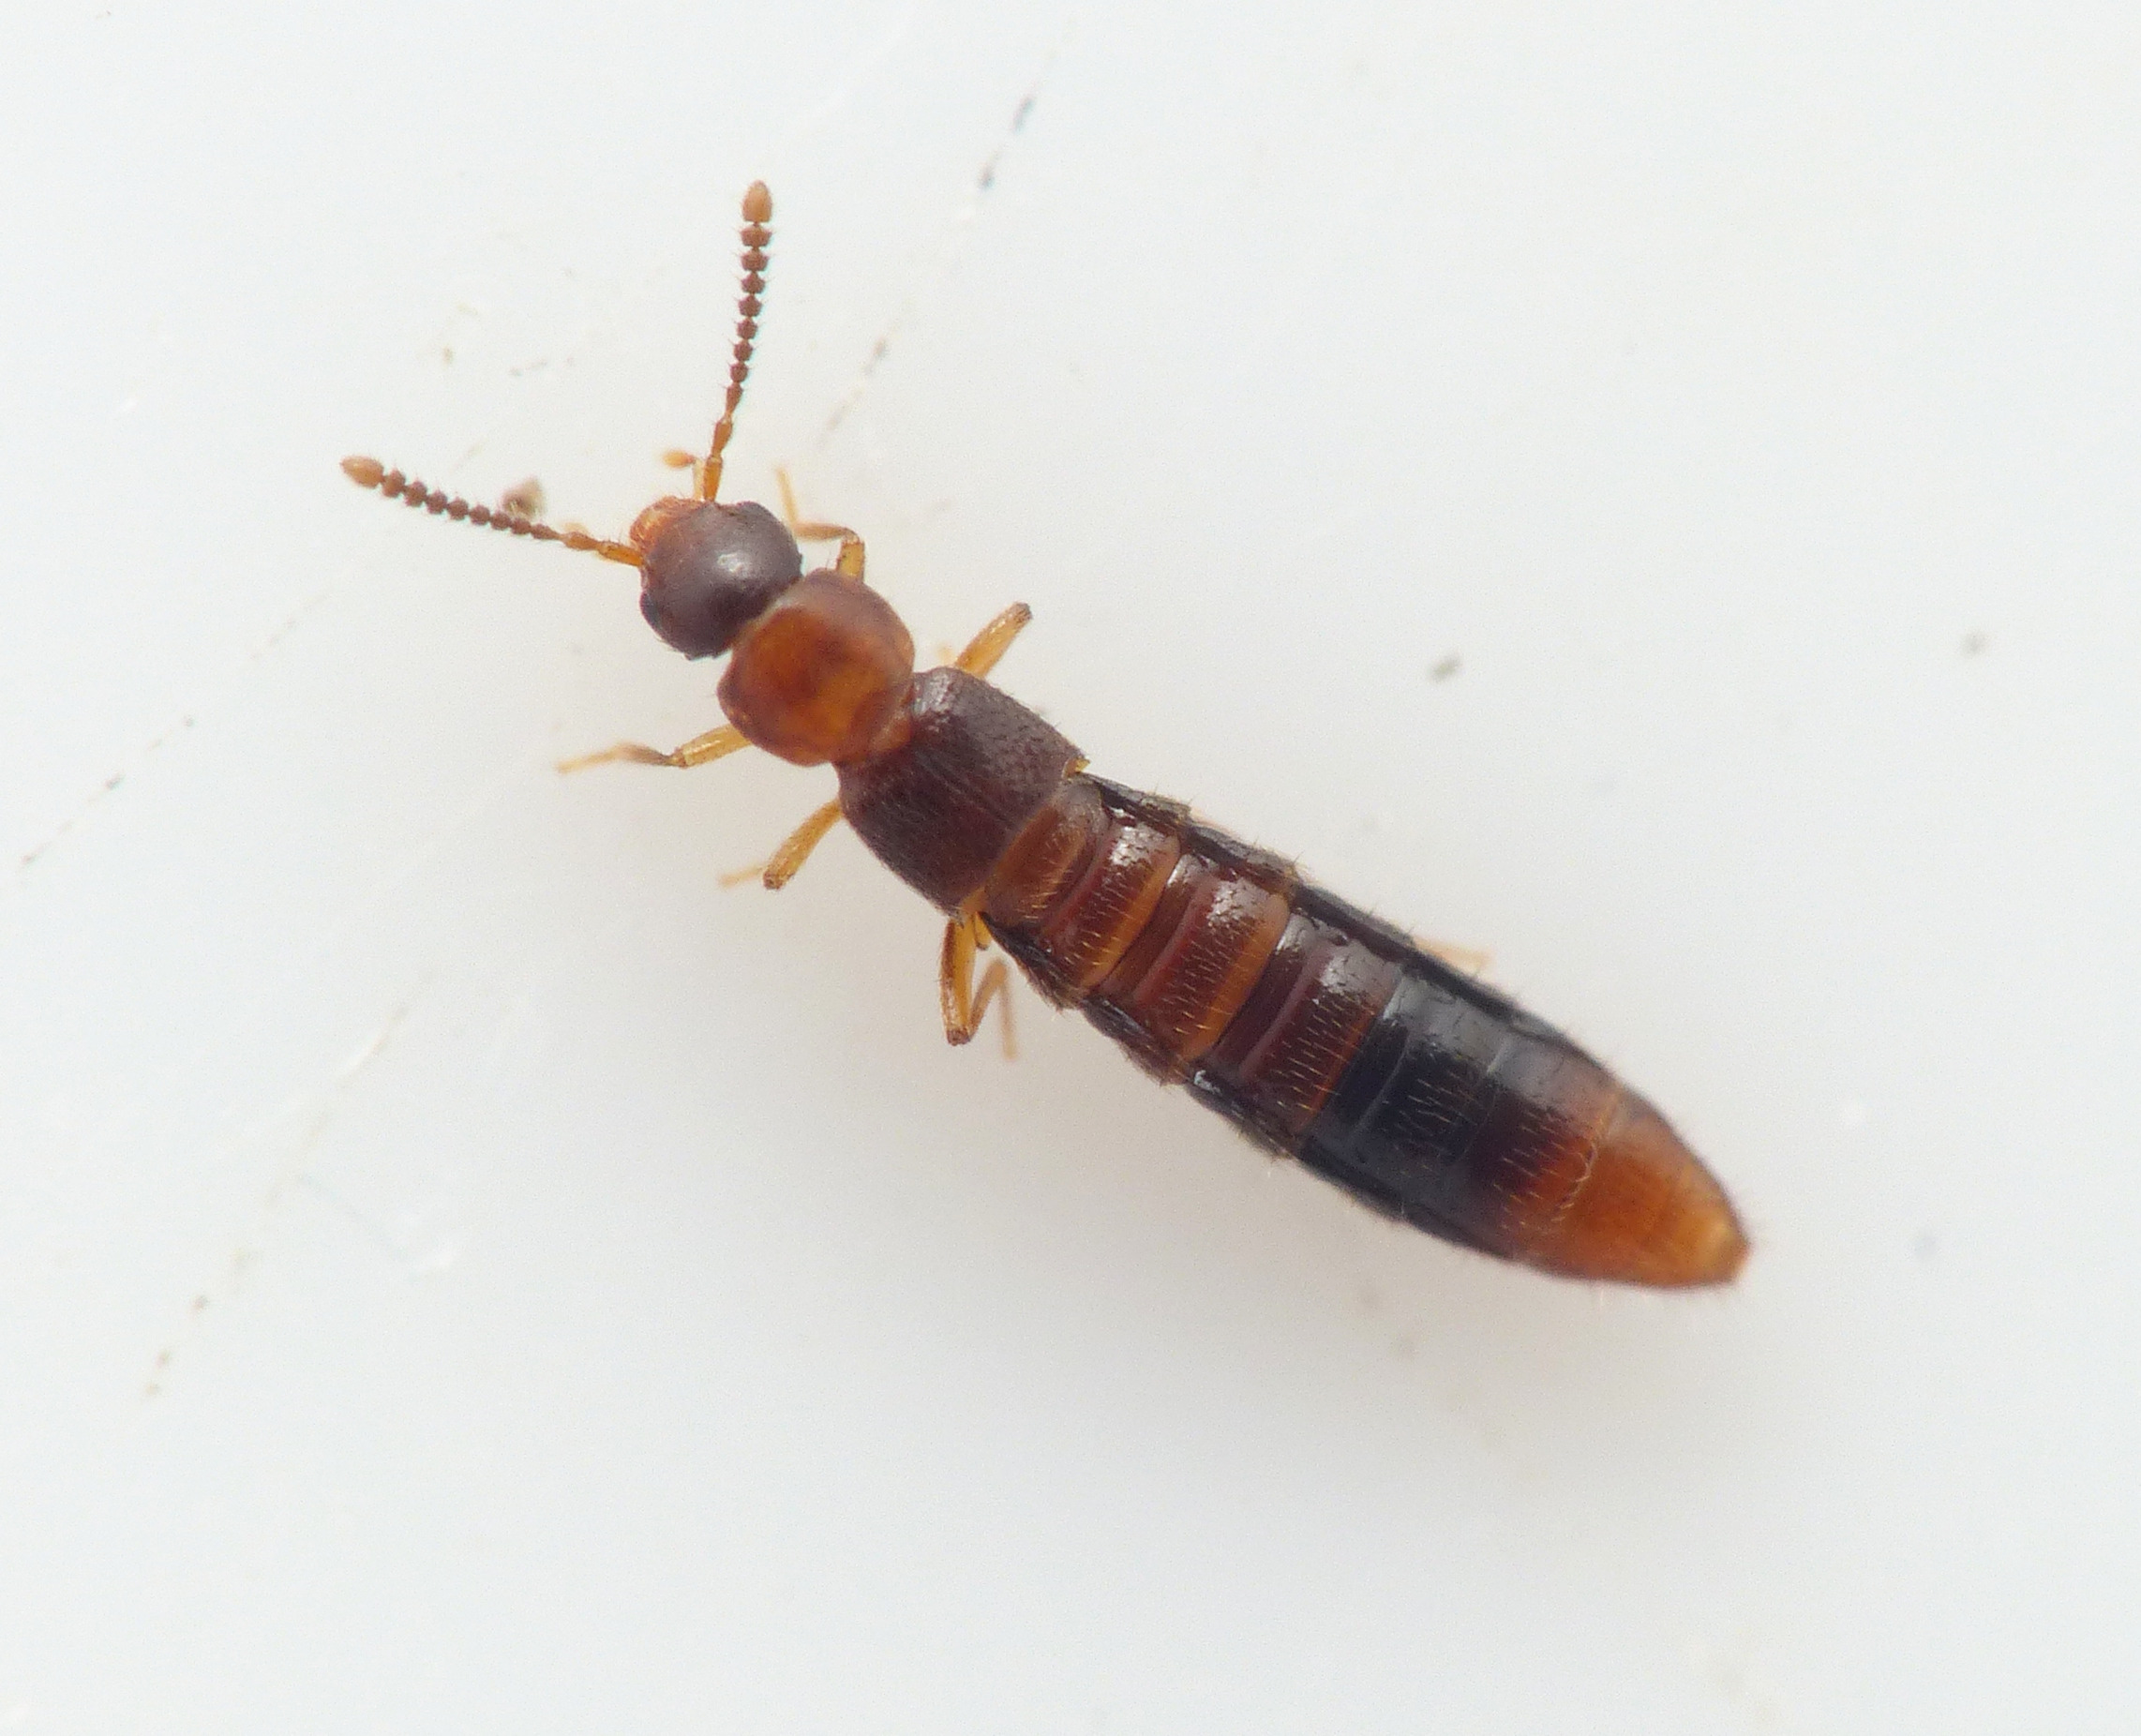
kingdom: Animalia
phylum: Arthropoda
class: Insecta
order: Coleoptera
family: Staphylinidae
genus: Leptusa
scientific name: Leptusa ruficollis
